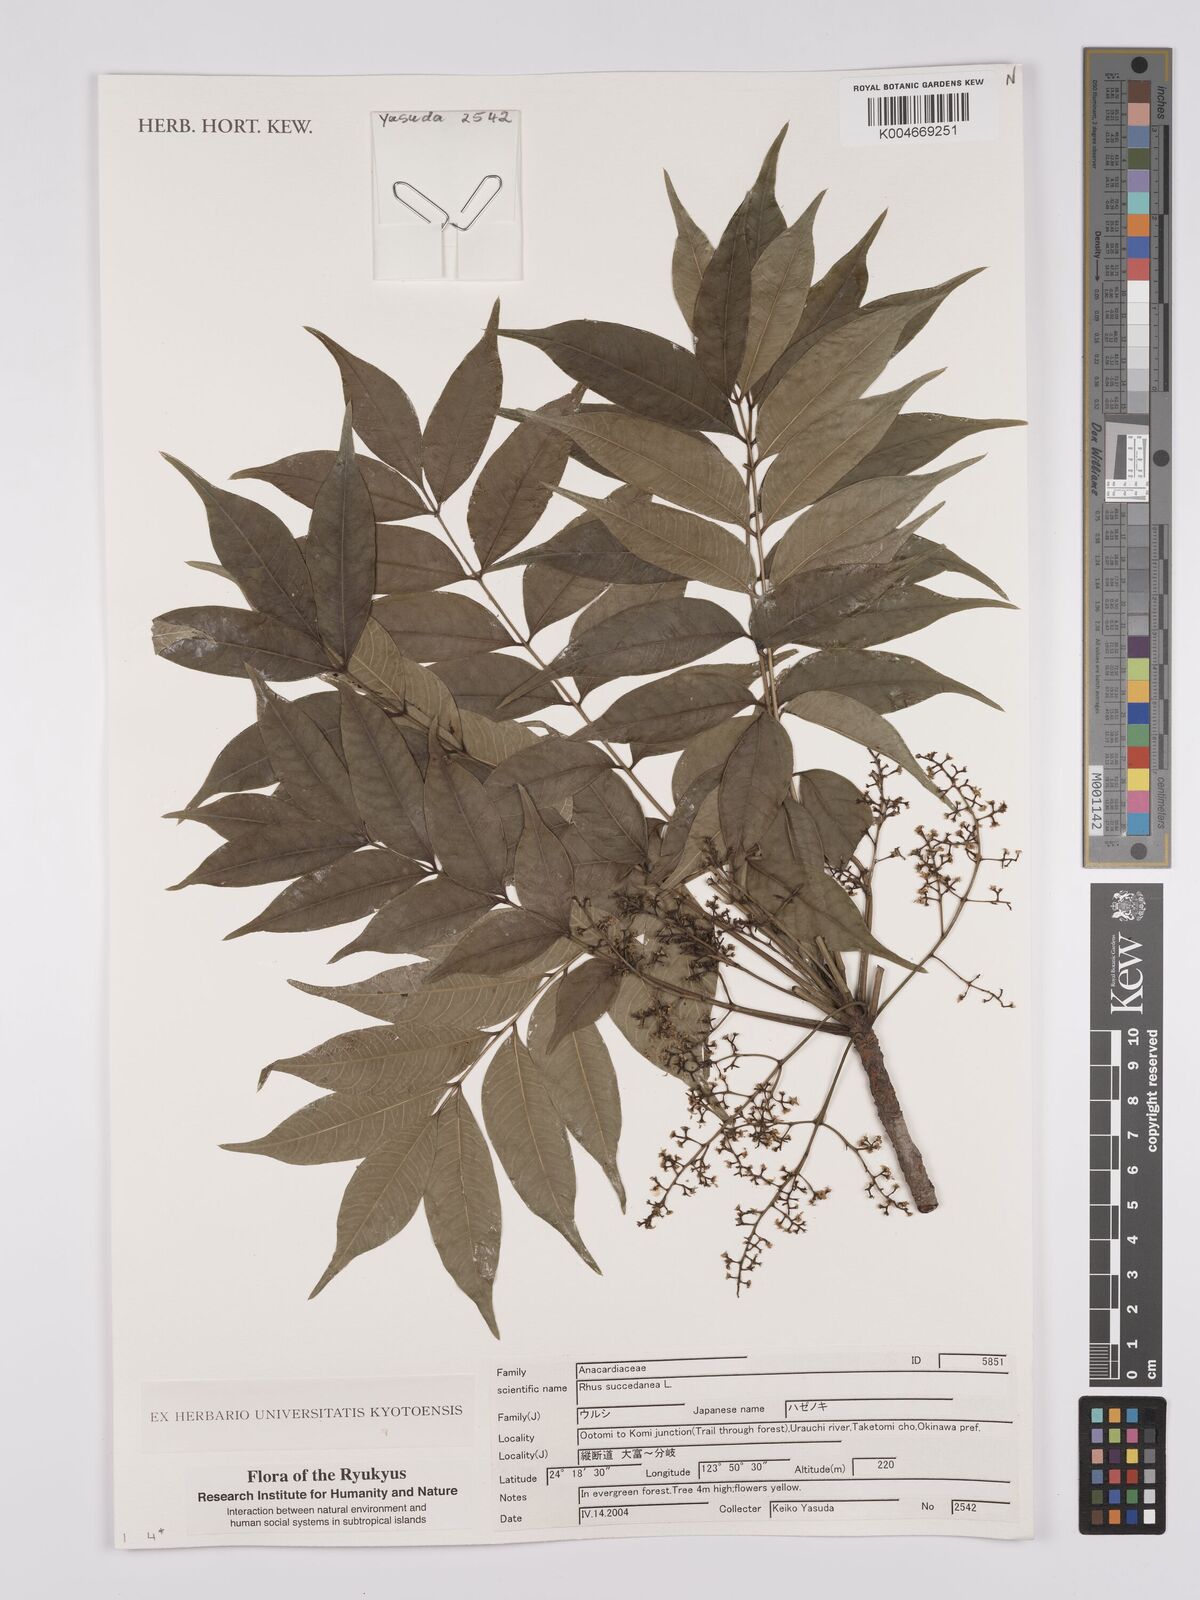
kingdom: Plantae
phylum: Tracheophyta
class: Magnoliopsida
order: Sapindales
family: Anacardiaceae
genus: Toxicodendron
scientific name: Toxicodendron succedaneum
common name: Wax tree
